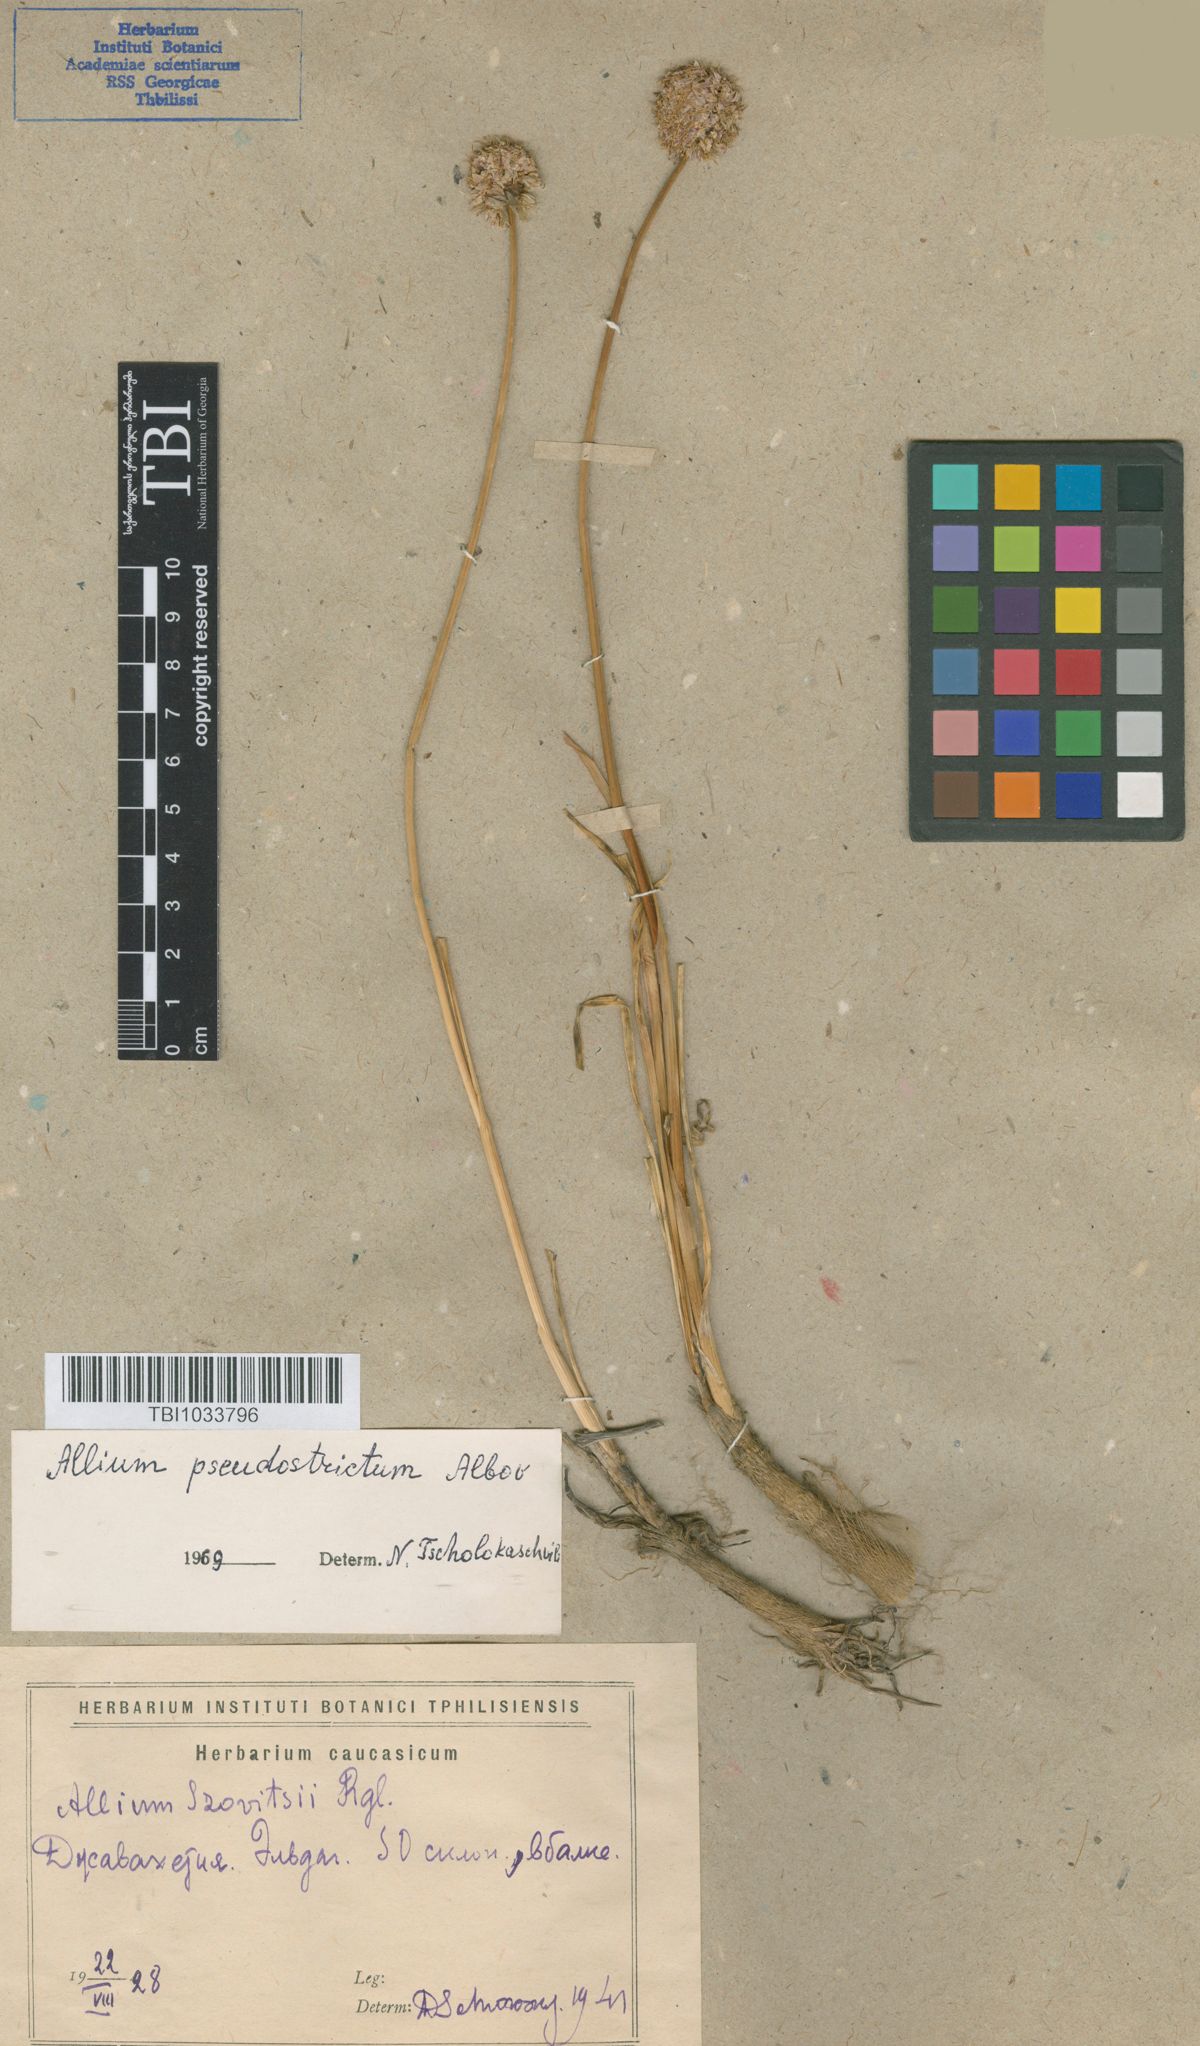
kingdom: Plantae
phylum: Tracheophyta
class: Liliopsida
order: Asparagales
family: Amaryllidaceae
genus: Allium
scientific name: Allium pseudostrictum
